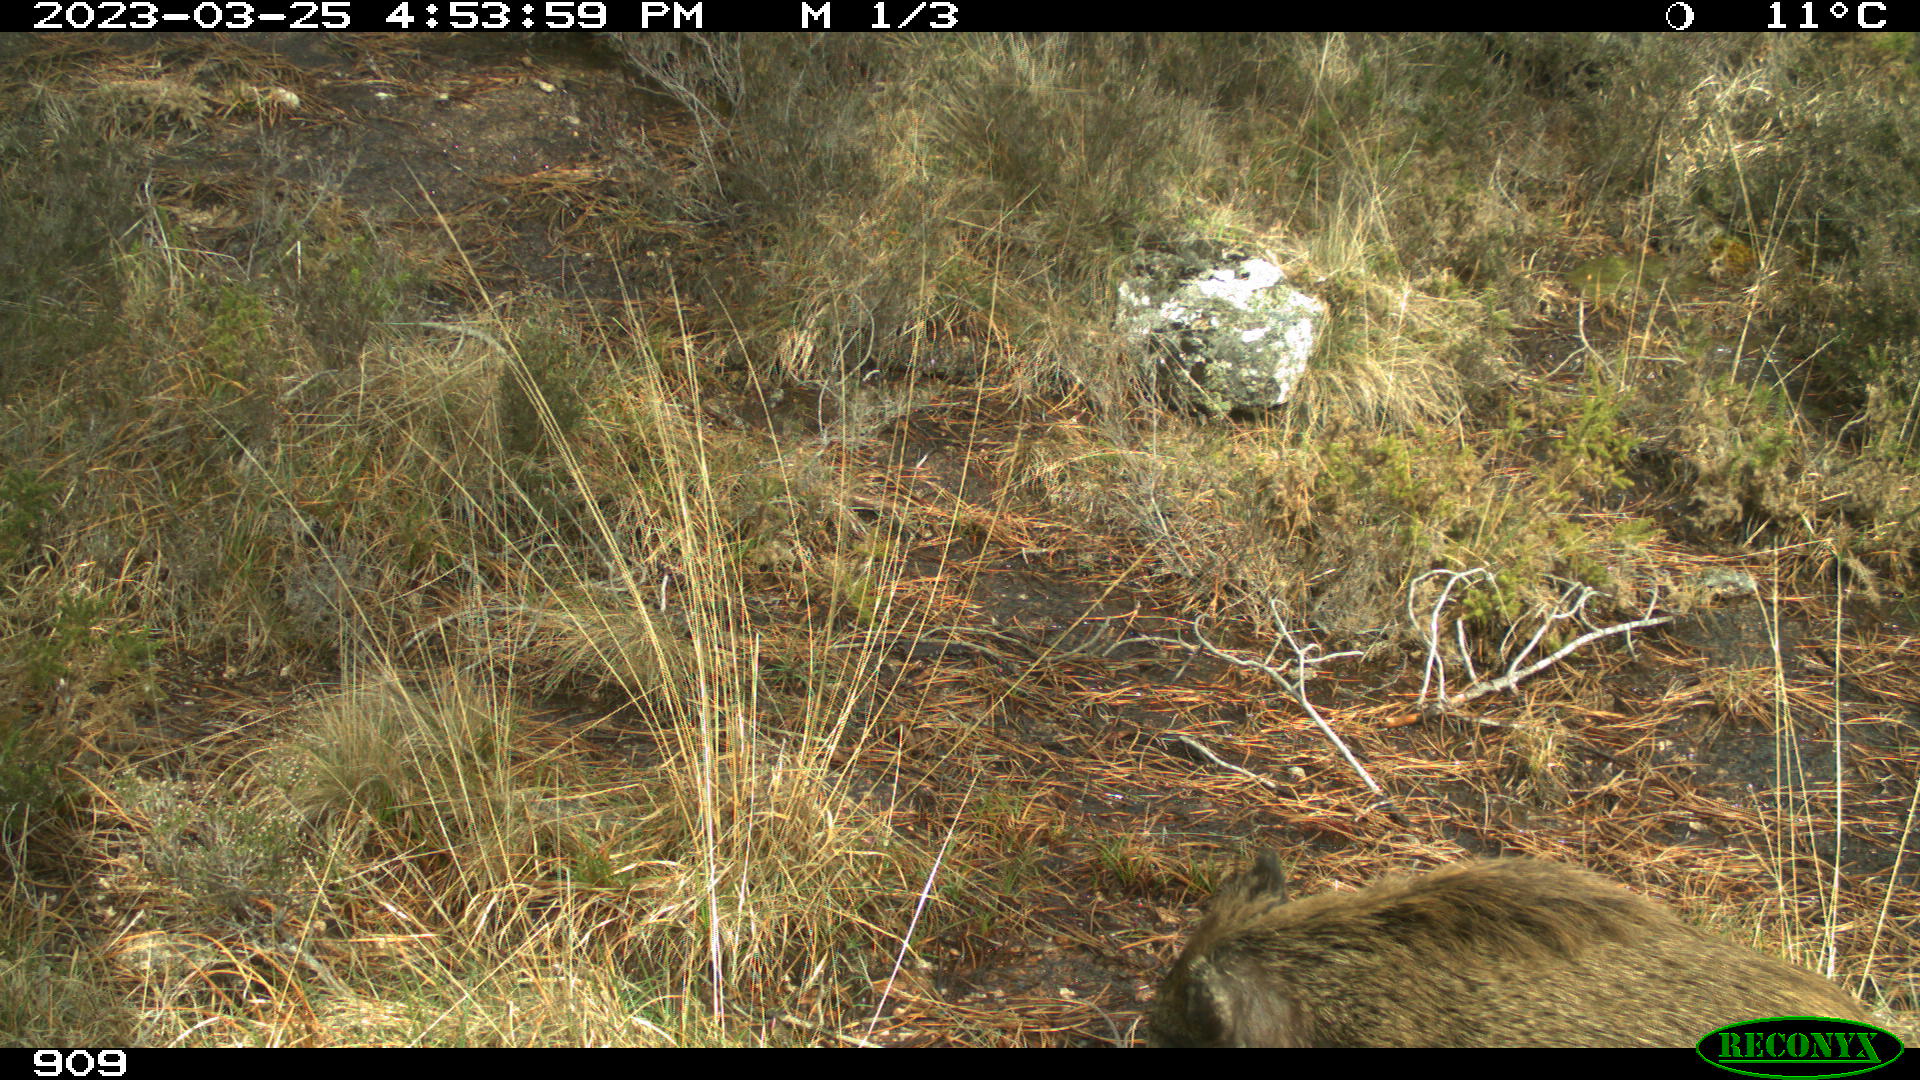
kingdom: Animalia
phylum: Chordata
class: Mammalia
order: Artiodactyla
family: Suidae
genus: Sus
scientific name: Sus scrofa
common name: Wild boar
